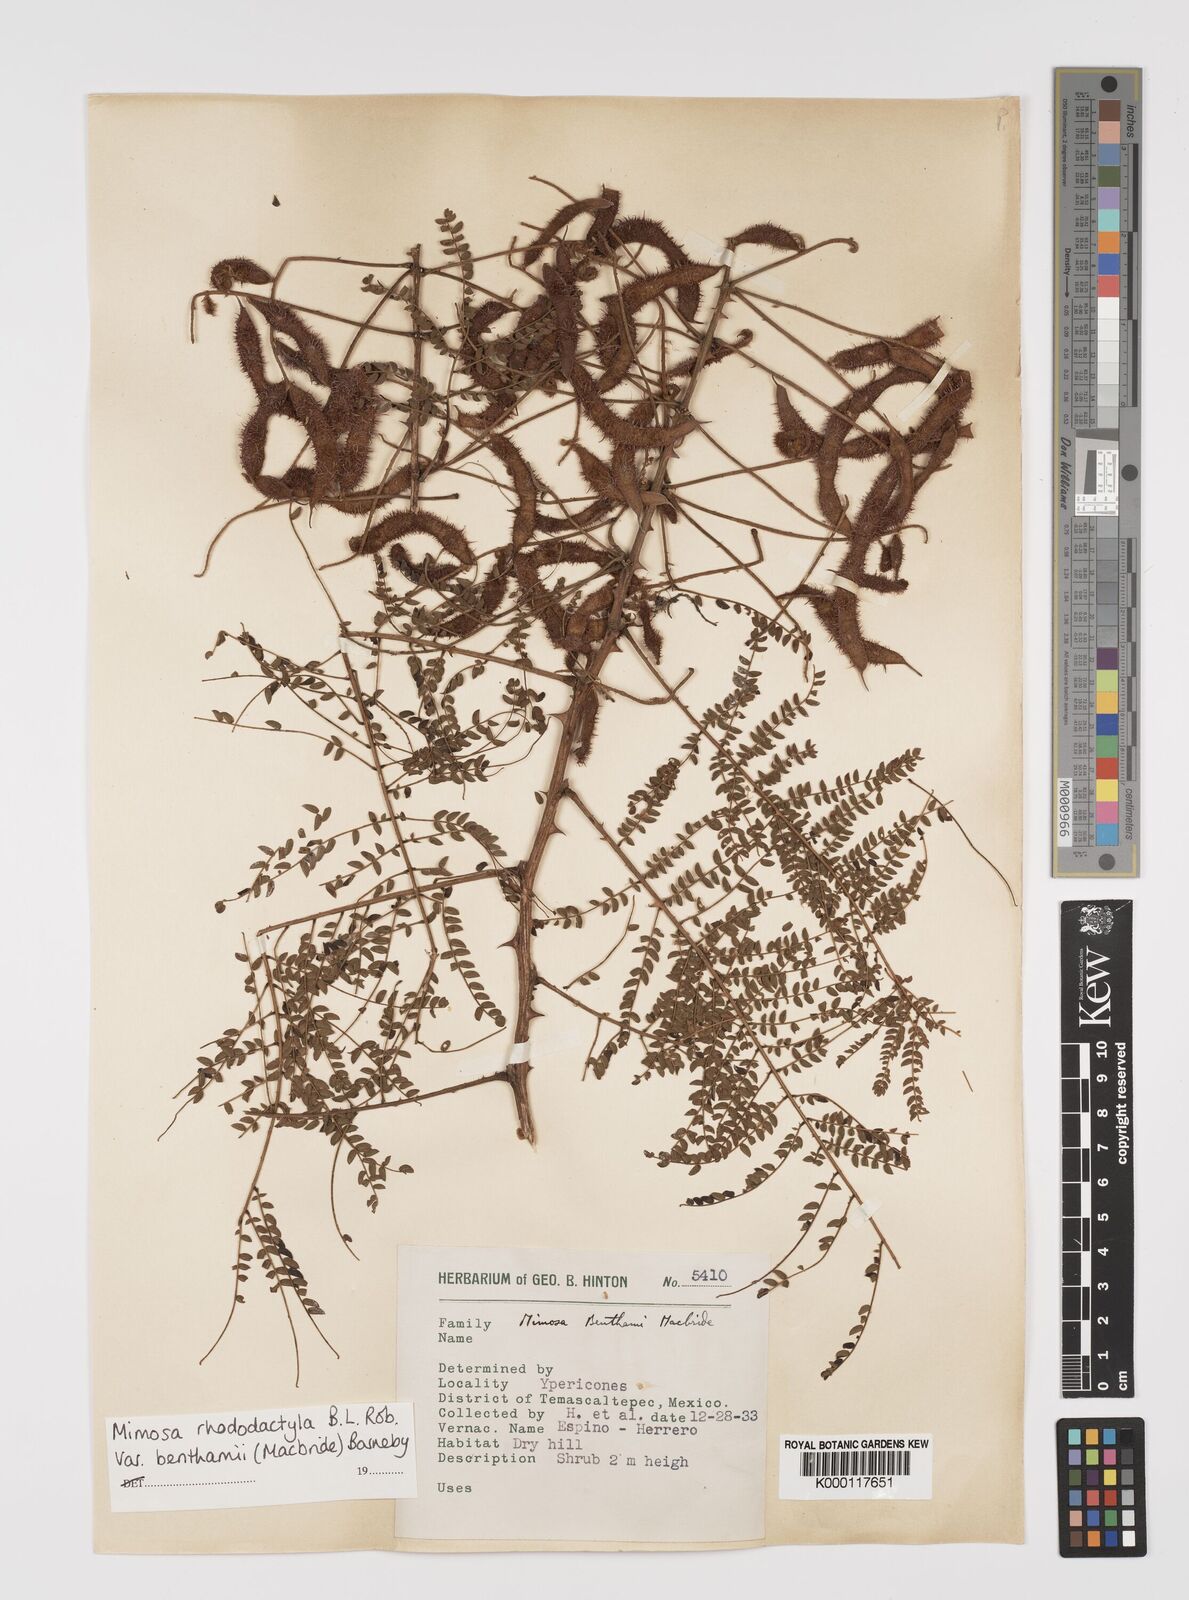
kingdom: Plantae
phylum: Tracheophyta
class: Magnoliopsida
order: Fabales
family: Fabaceae
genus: Mimosa
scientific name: Mimosa benthamii
